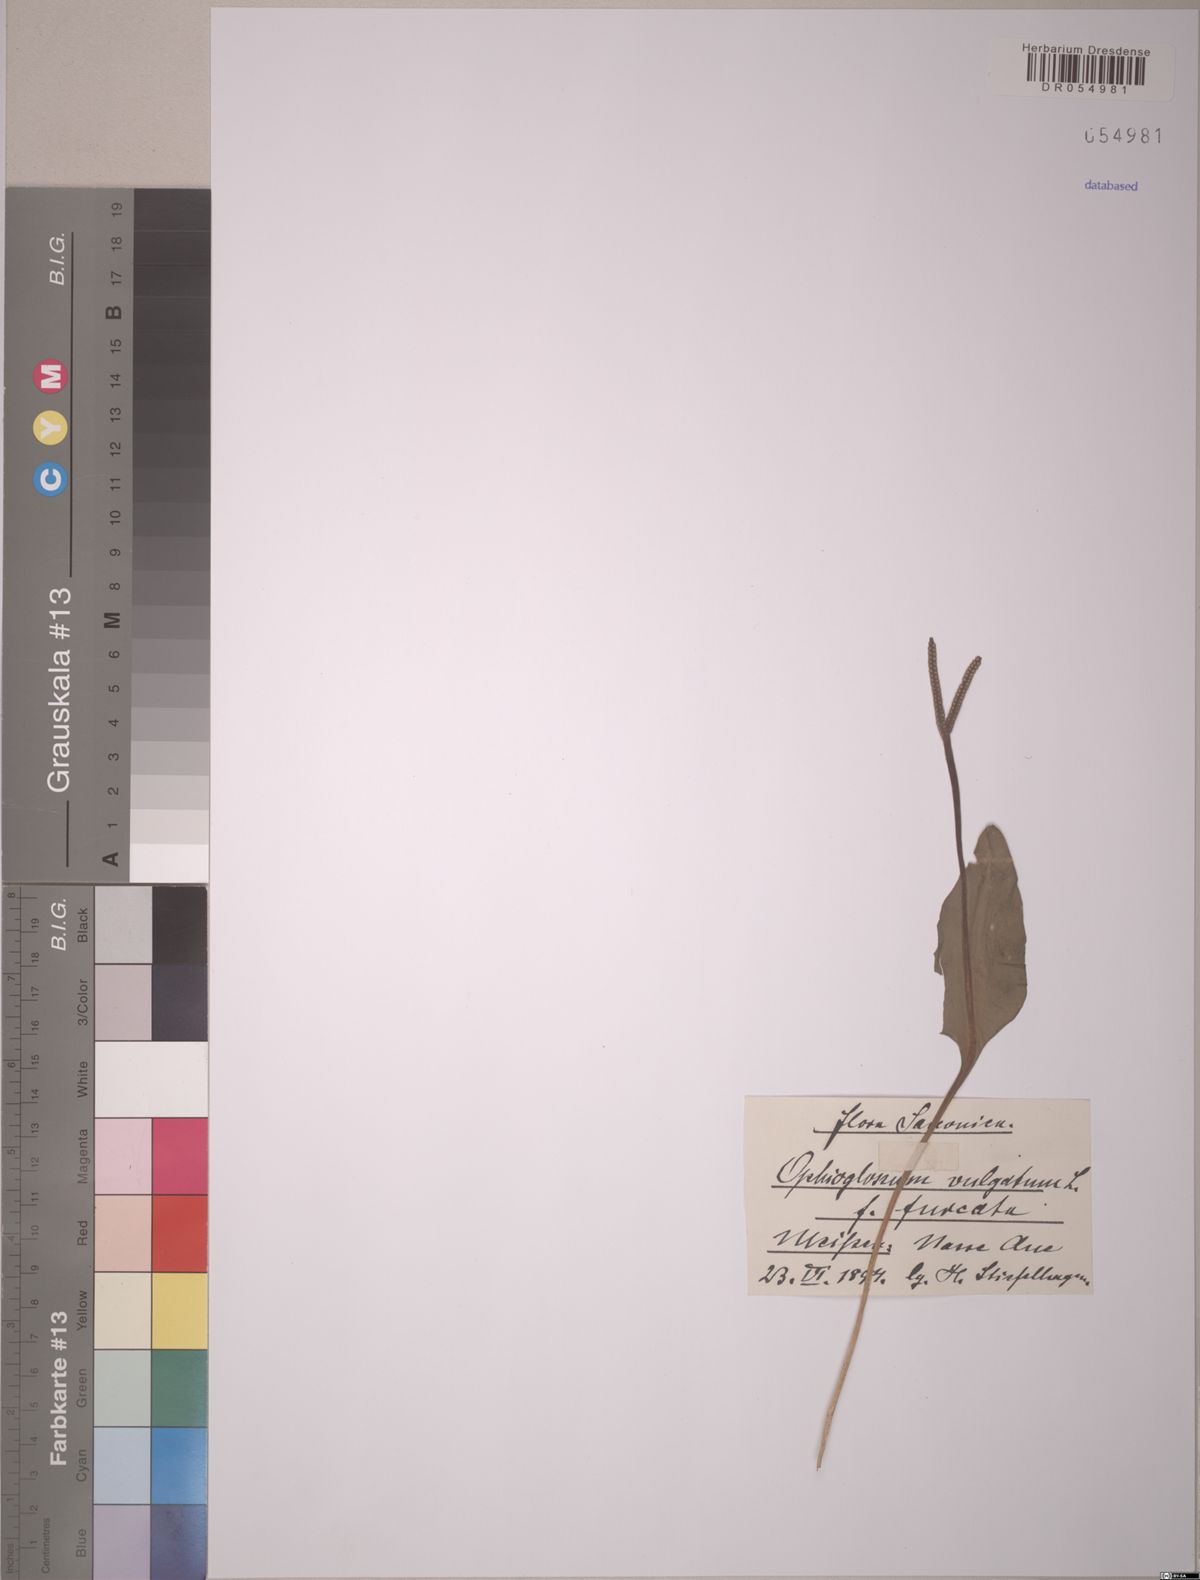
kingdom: Plantae
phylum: Tracheophyta
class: Polypodiopsida
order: Ophioglossales
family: Ophioglossaceae
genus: Ophioglossum
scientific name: Ophioglossum vulgatum
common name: Adder's-tongue
